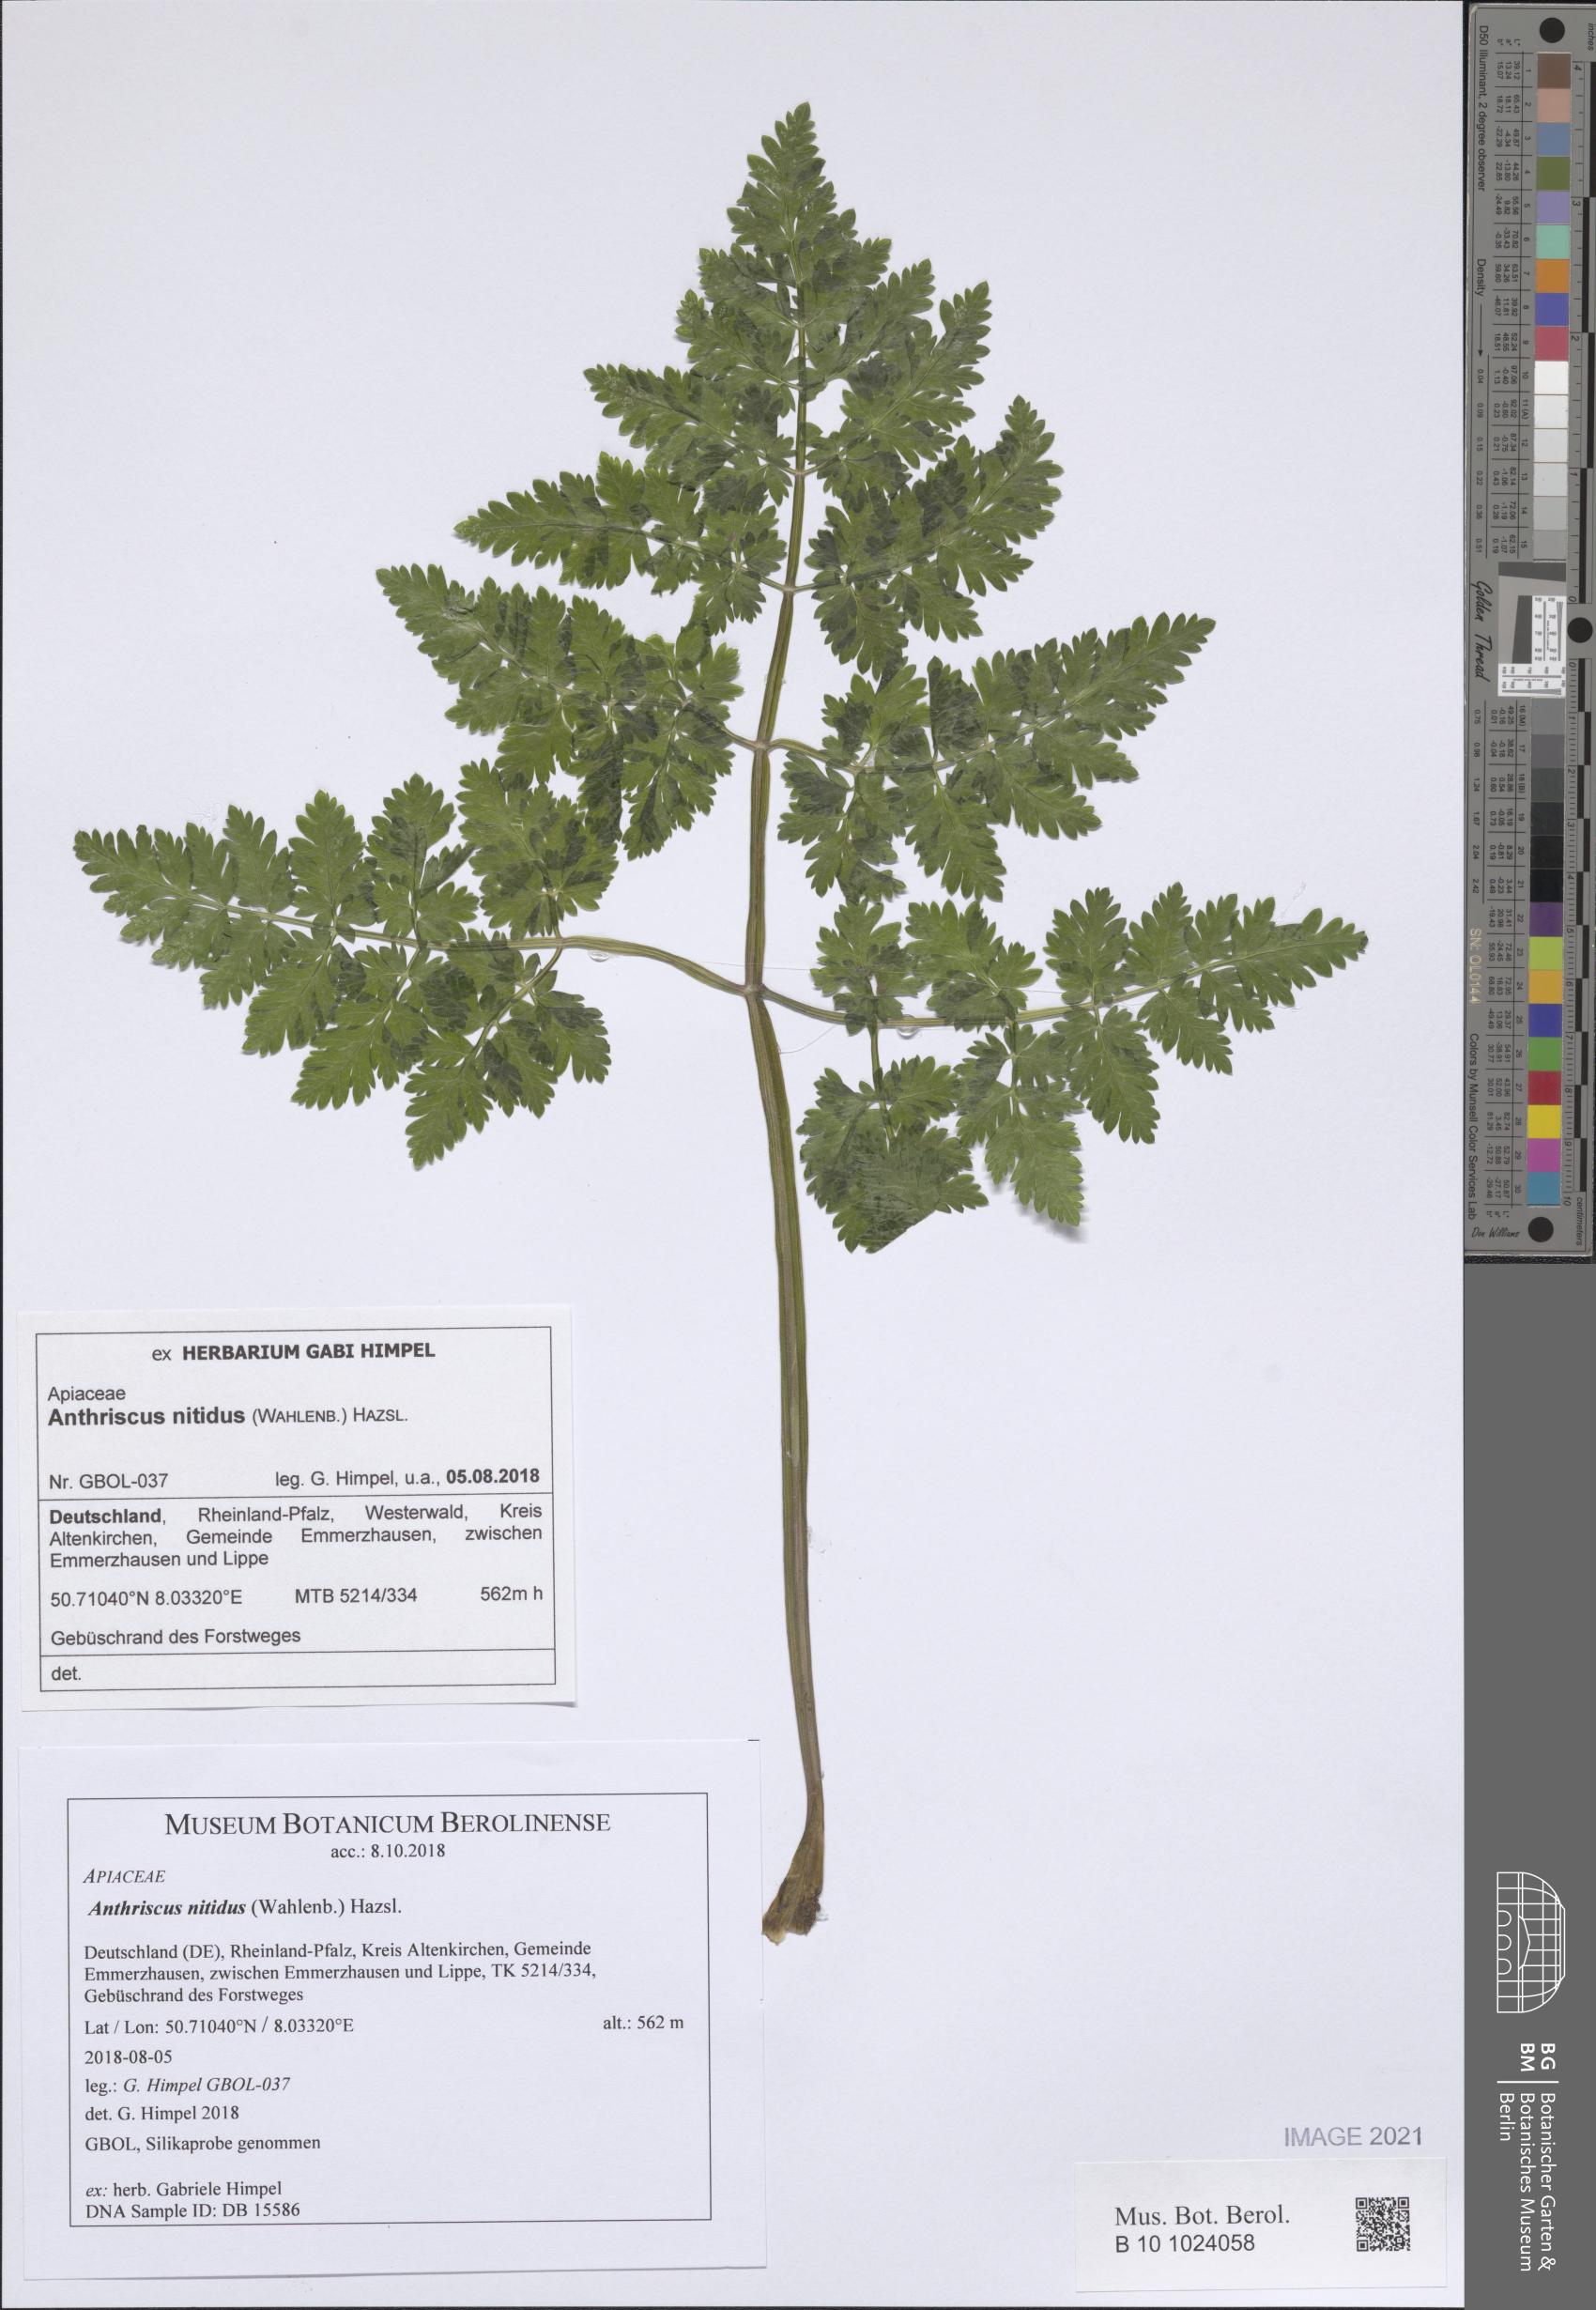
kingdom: Plantae
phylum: Tracheophyta
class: Magnoliopsida
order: Apiales
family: Apiaceae
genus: Anthriscus
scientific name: Anthriscus nitida
